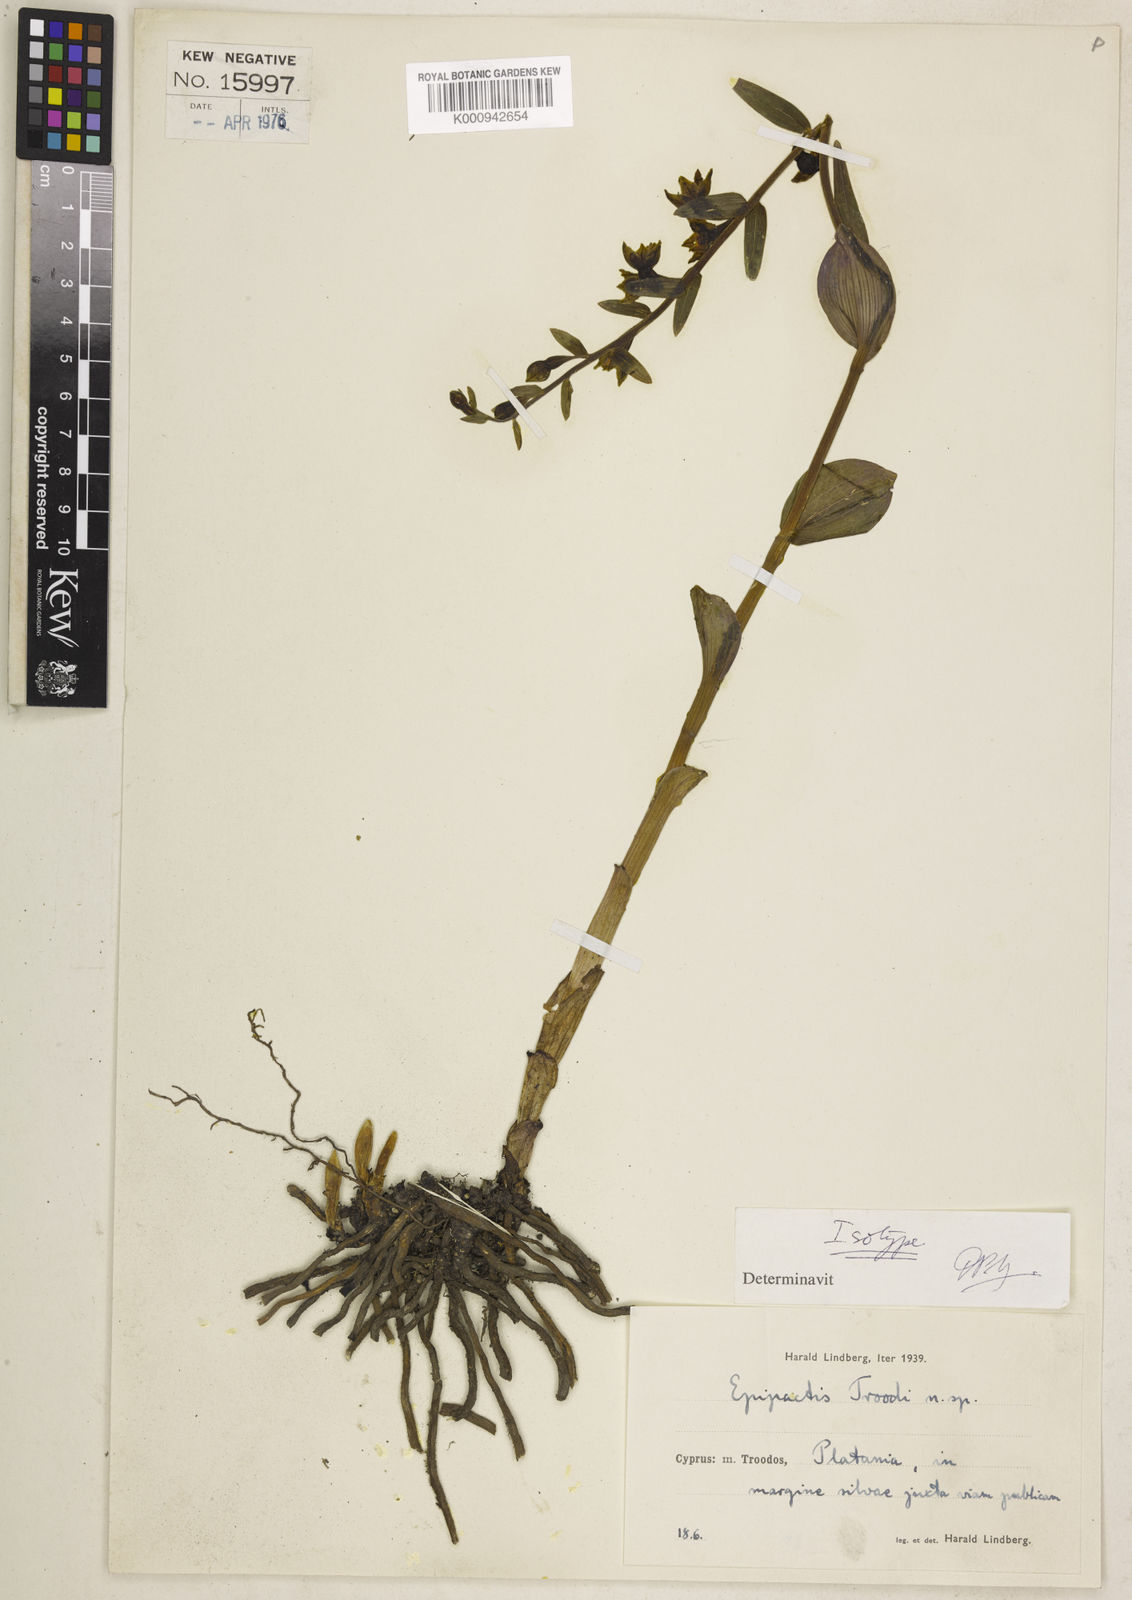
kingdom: Plantae
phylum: Tracheophyta
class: Liliopsida
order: Asparagales
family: Orchidaceae
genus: Epipactis
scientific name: Epipactis persica
